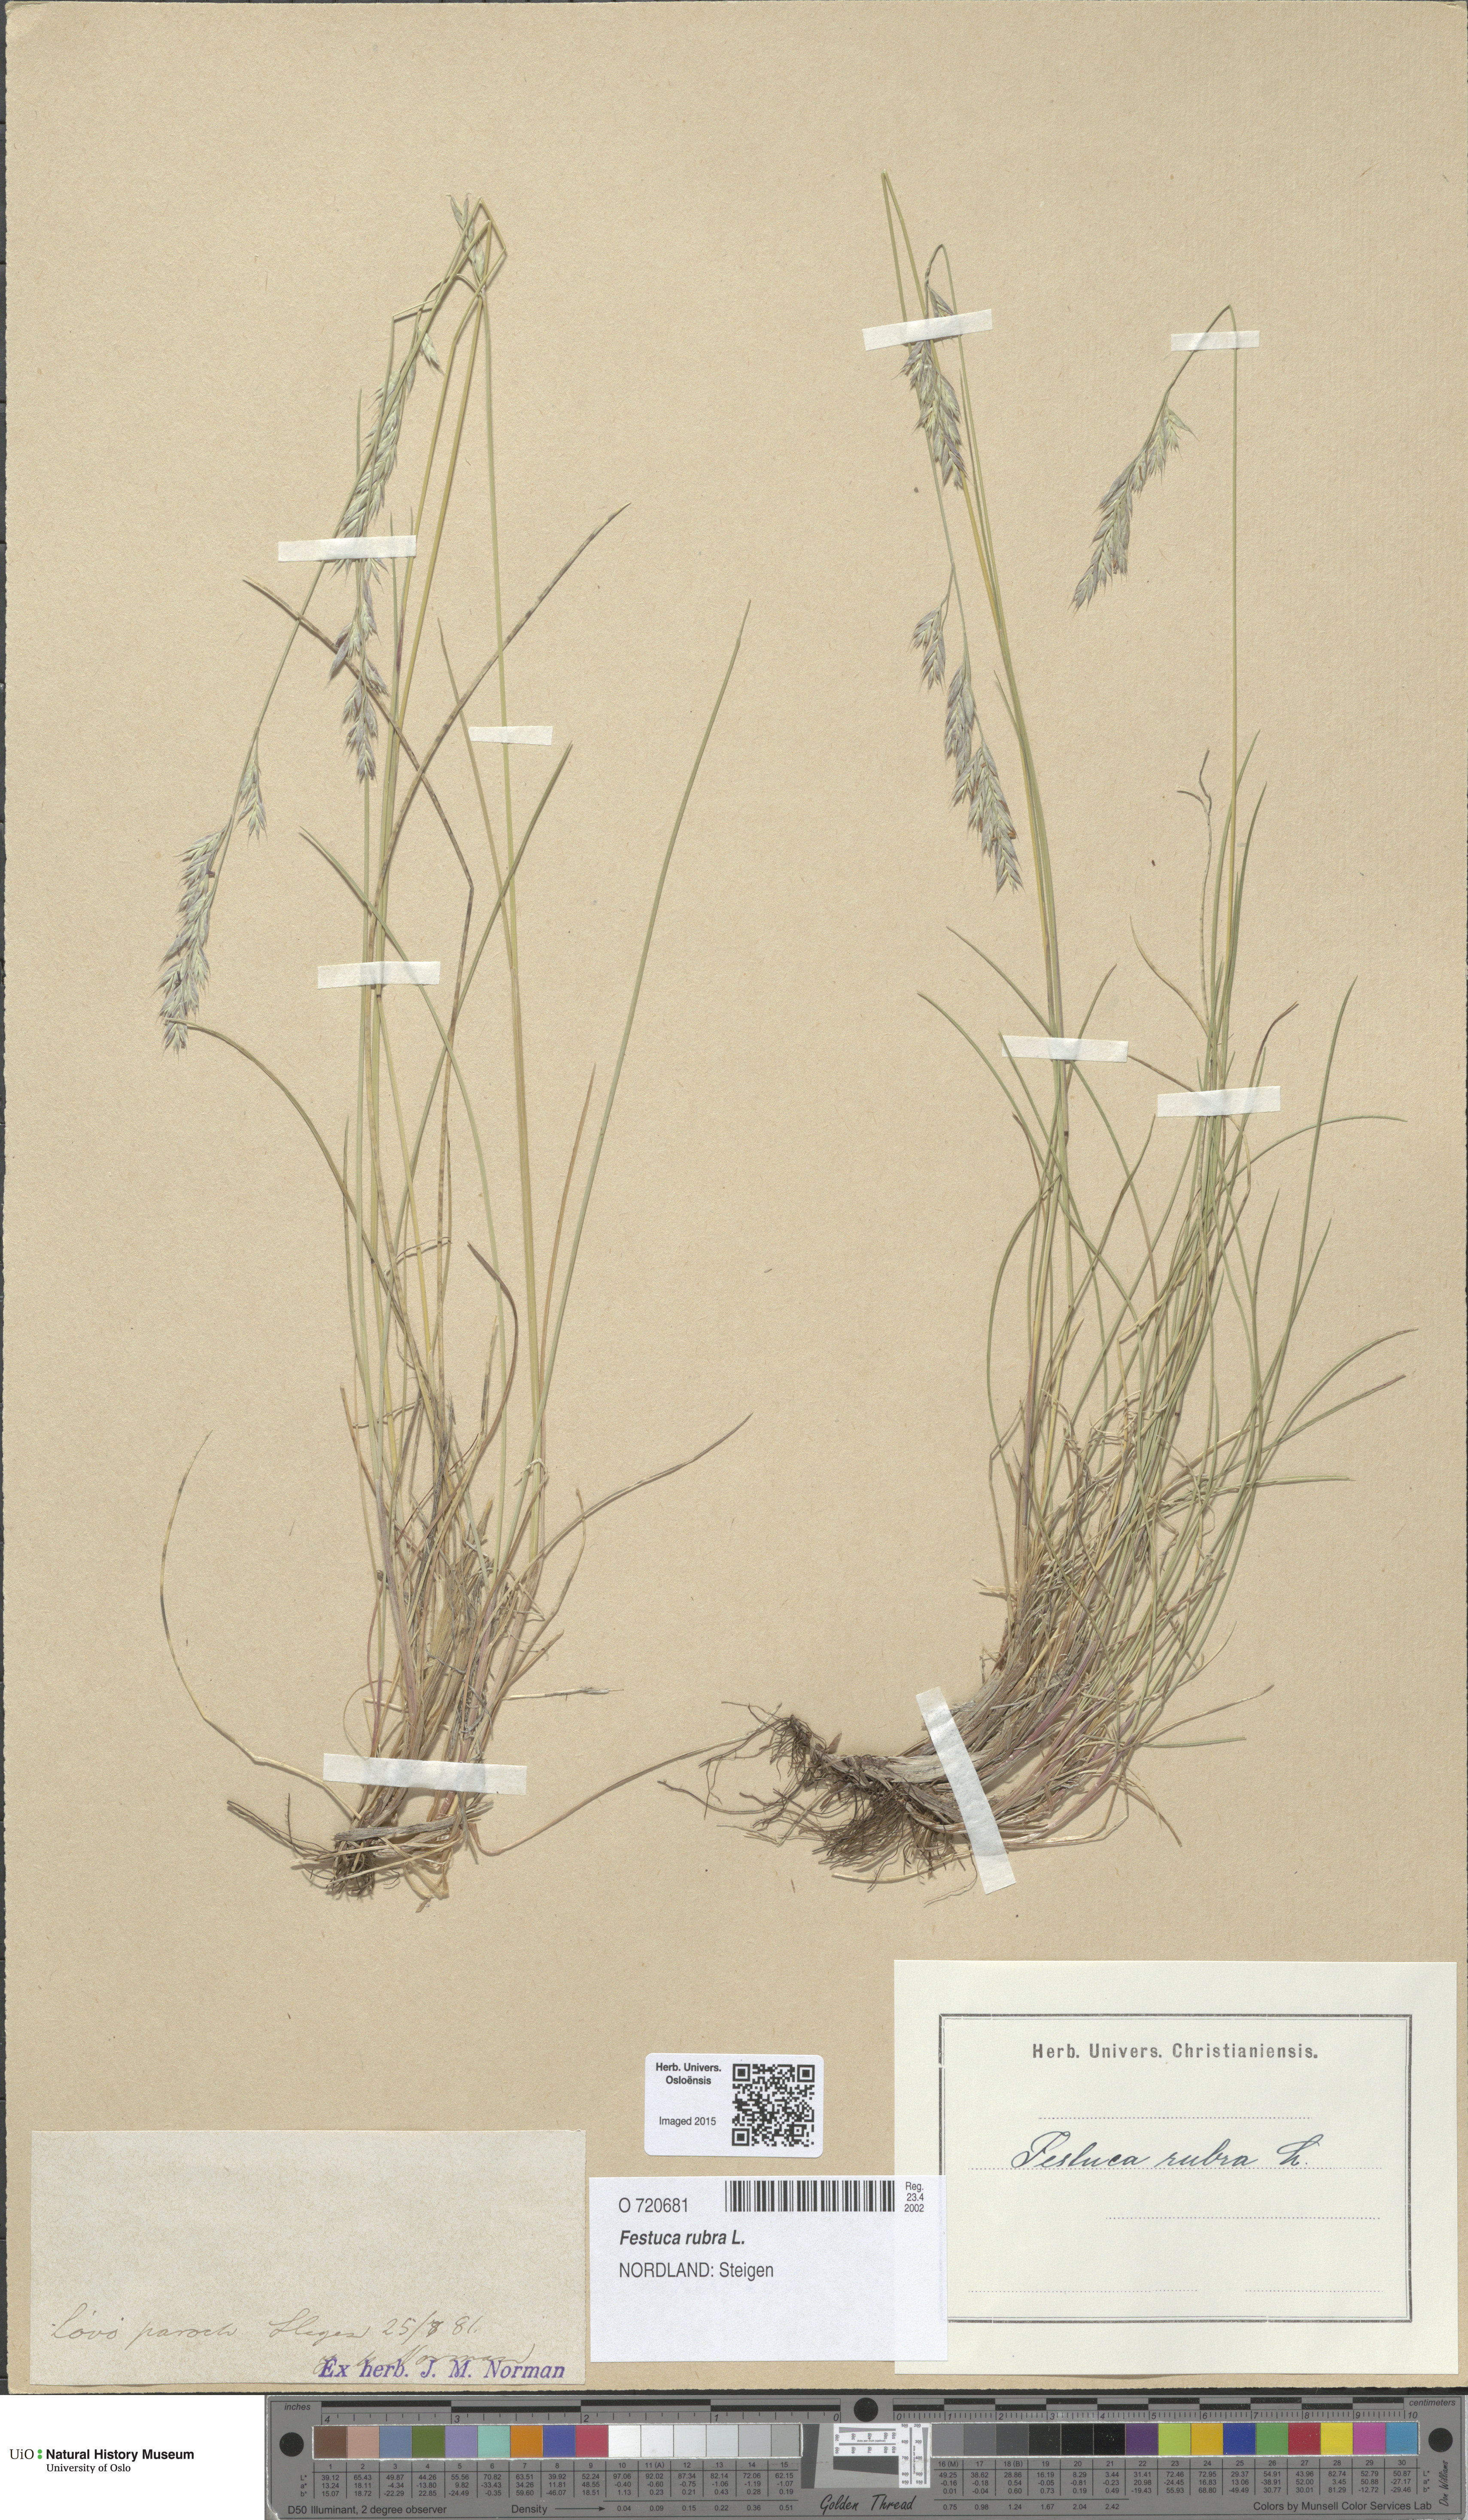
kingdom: Plantae
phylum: Tracheophyta
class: Liliopsida
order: Poales
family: Poaceae
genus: Festuca
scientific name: Festuca rubra
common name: Red fescue
